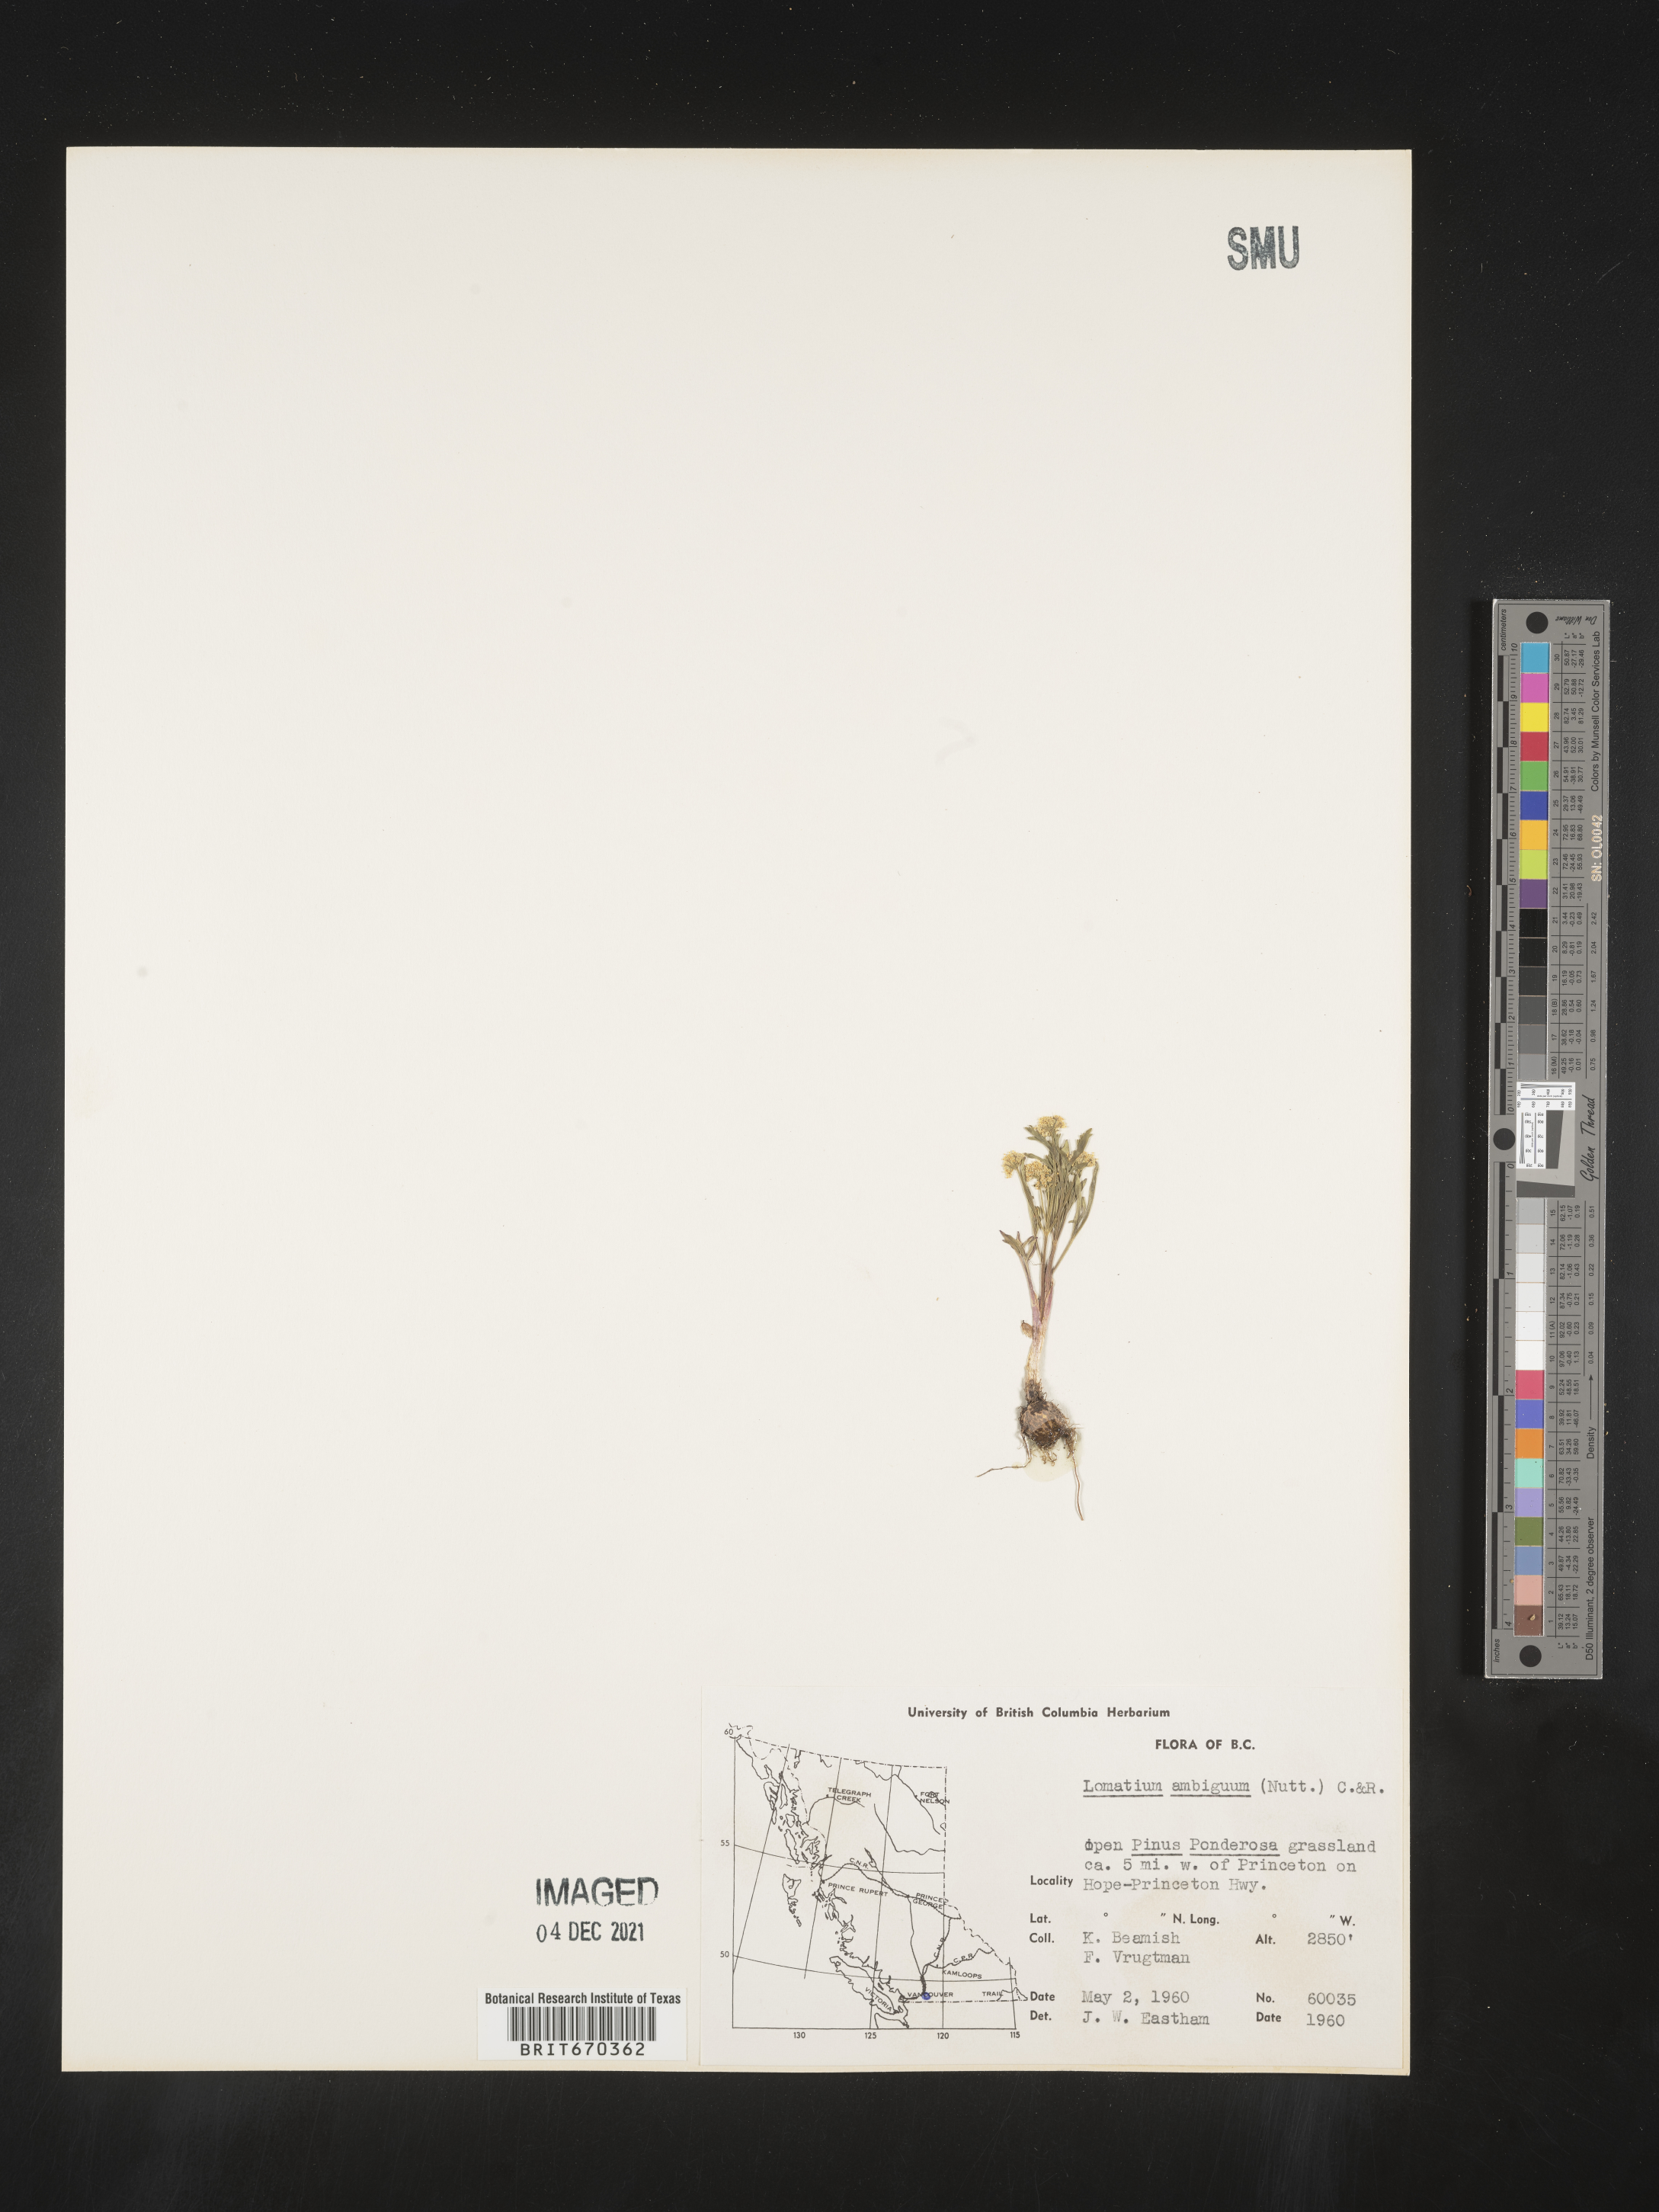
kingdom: Plantae
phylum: Tracheophyta
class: Magnoliopsida
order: Apiales
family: Apiaceae
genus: Lomatium
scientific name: Lomatium ambiguum
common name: Lacy lomatium
